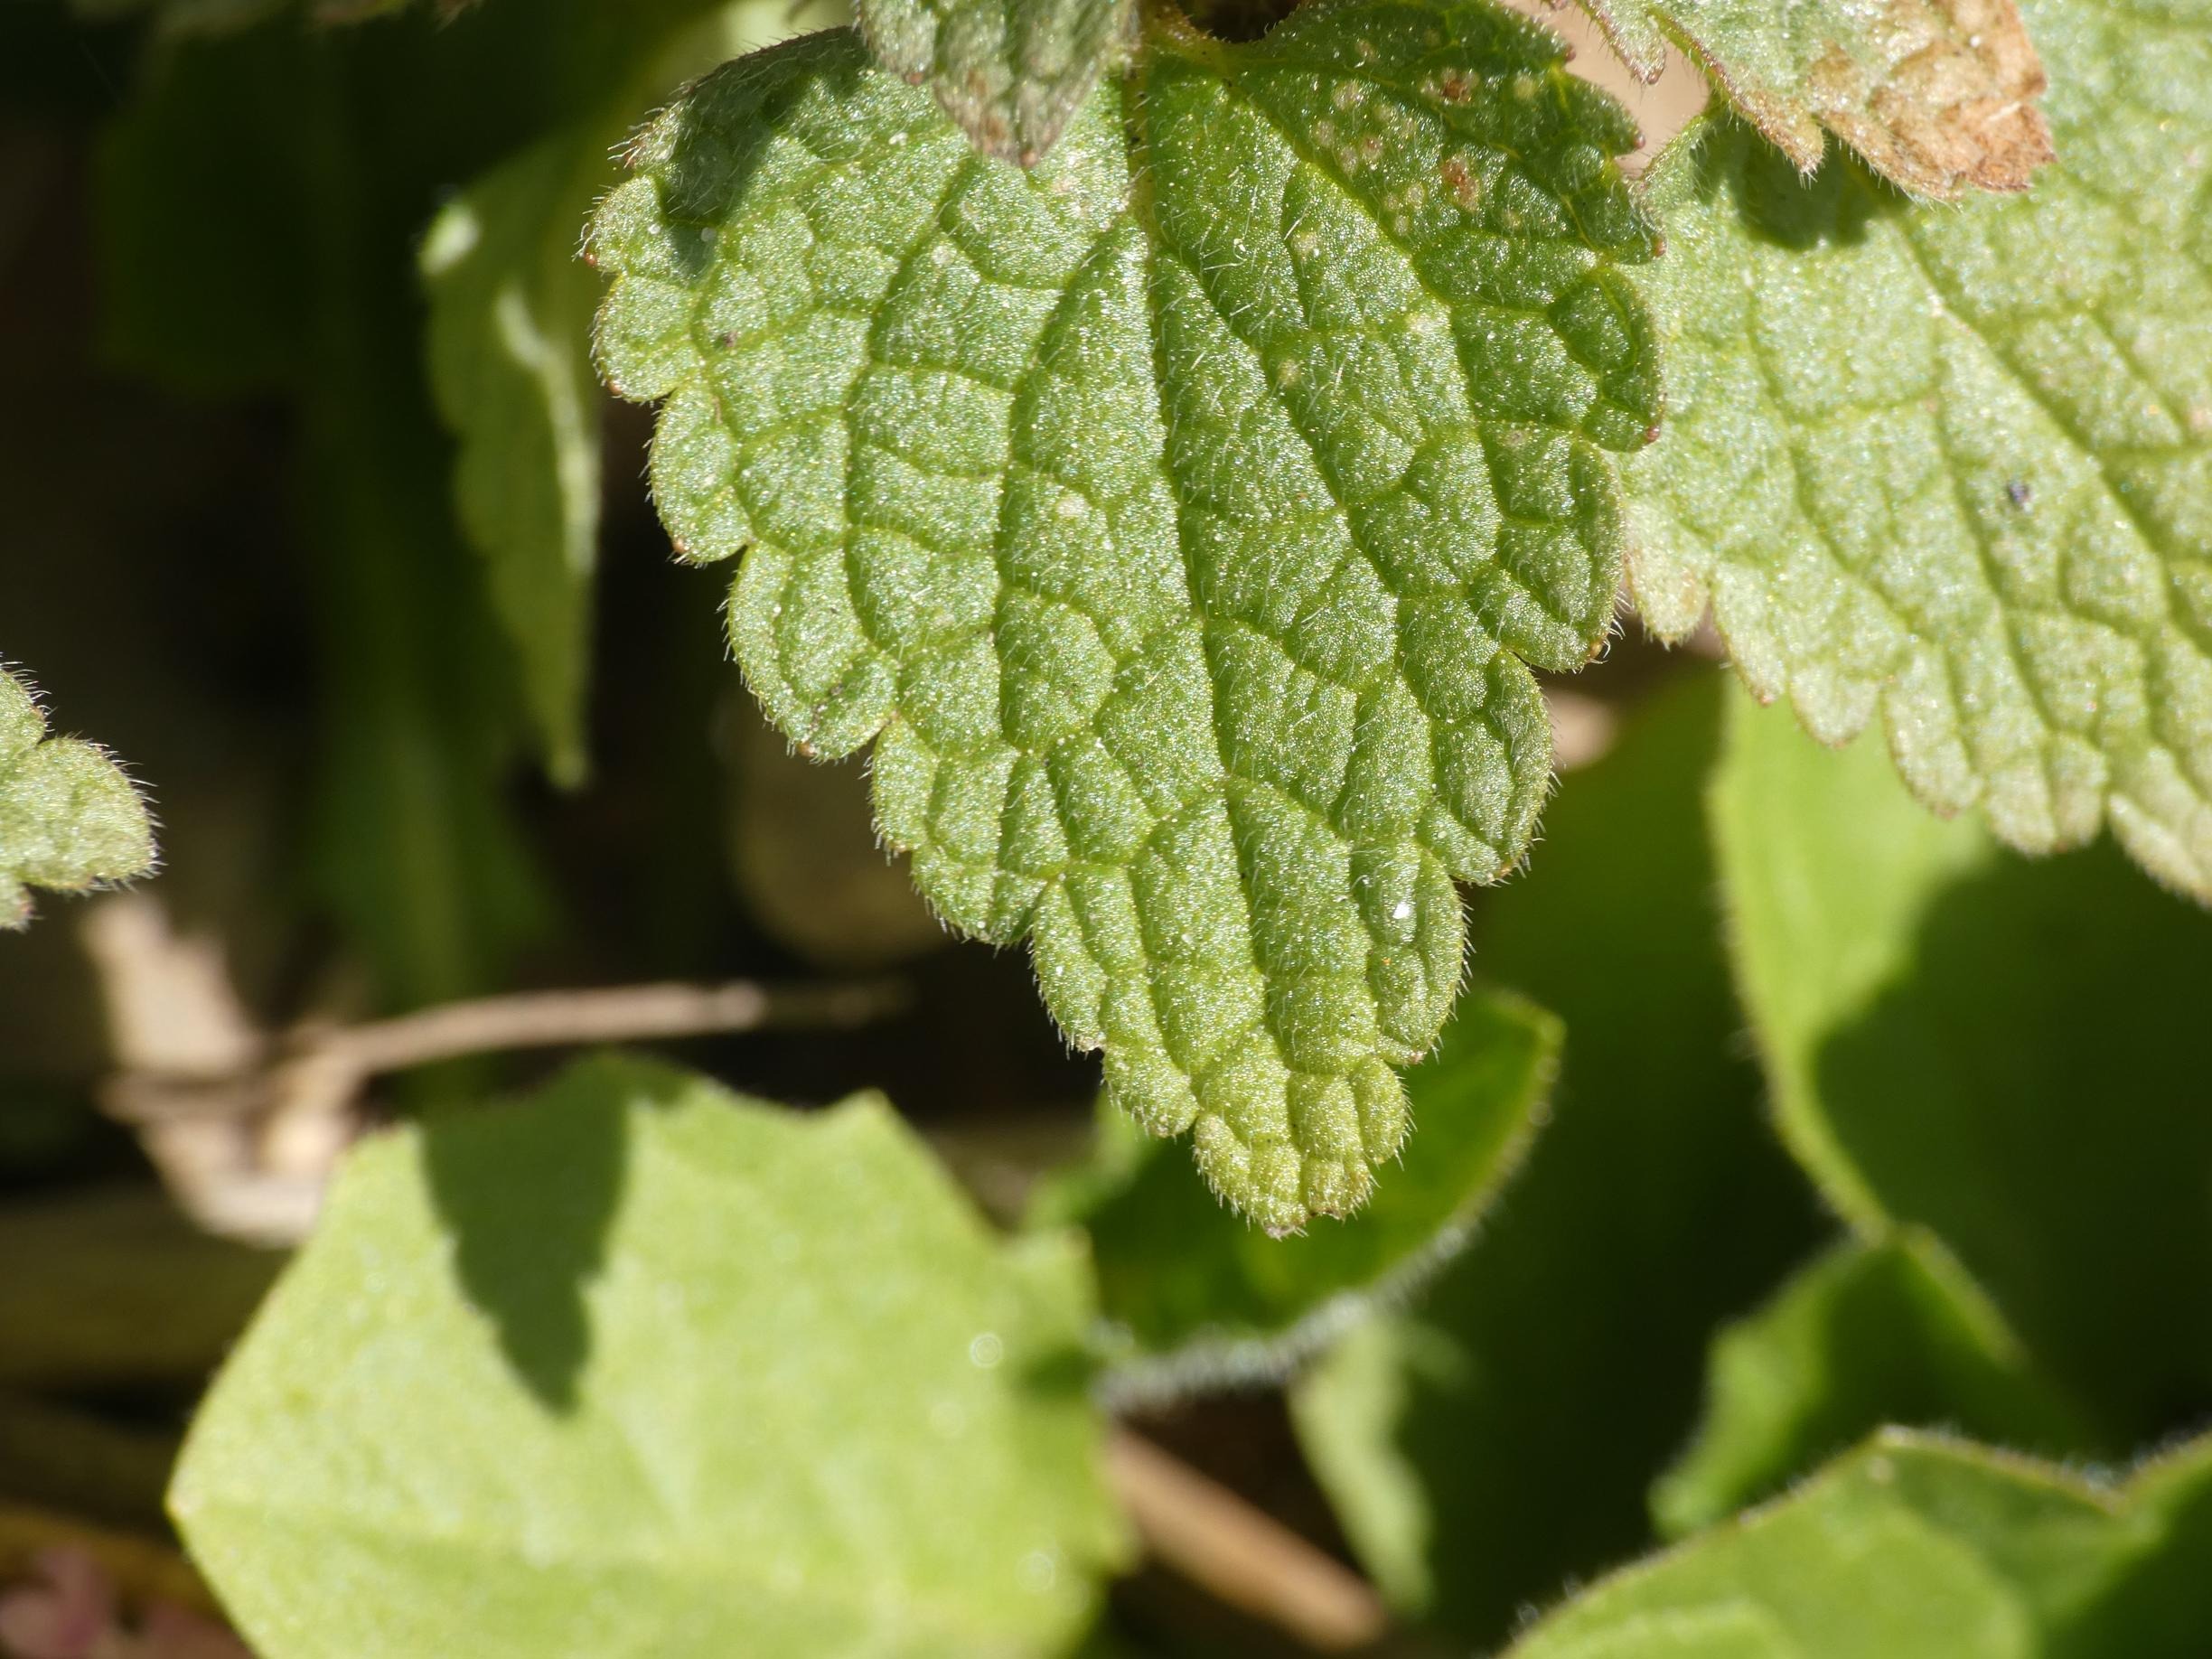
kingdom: Plantae
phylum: Tracheophyta
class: Magnoliopsida
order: Lamiales
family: Lamiaceae
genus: Lamium
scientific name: Lamium purpureum
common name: Rød tvetand
